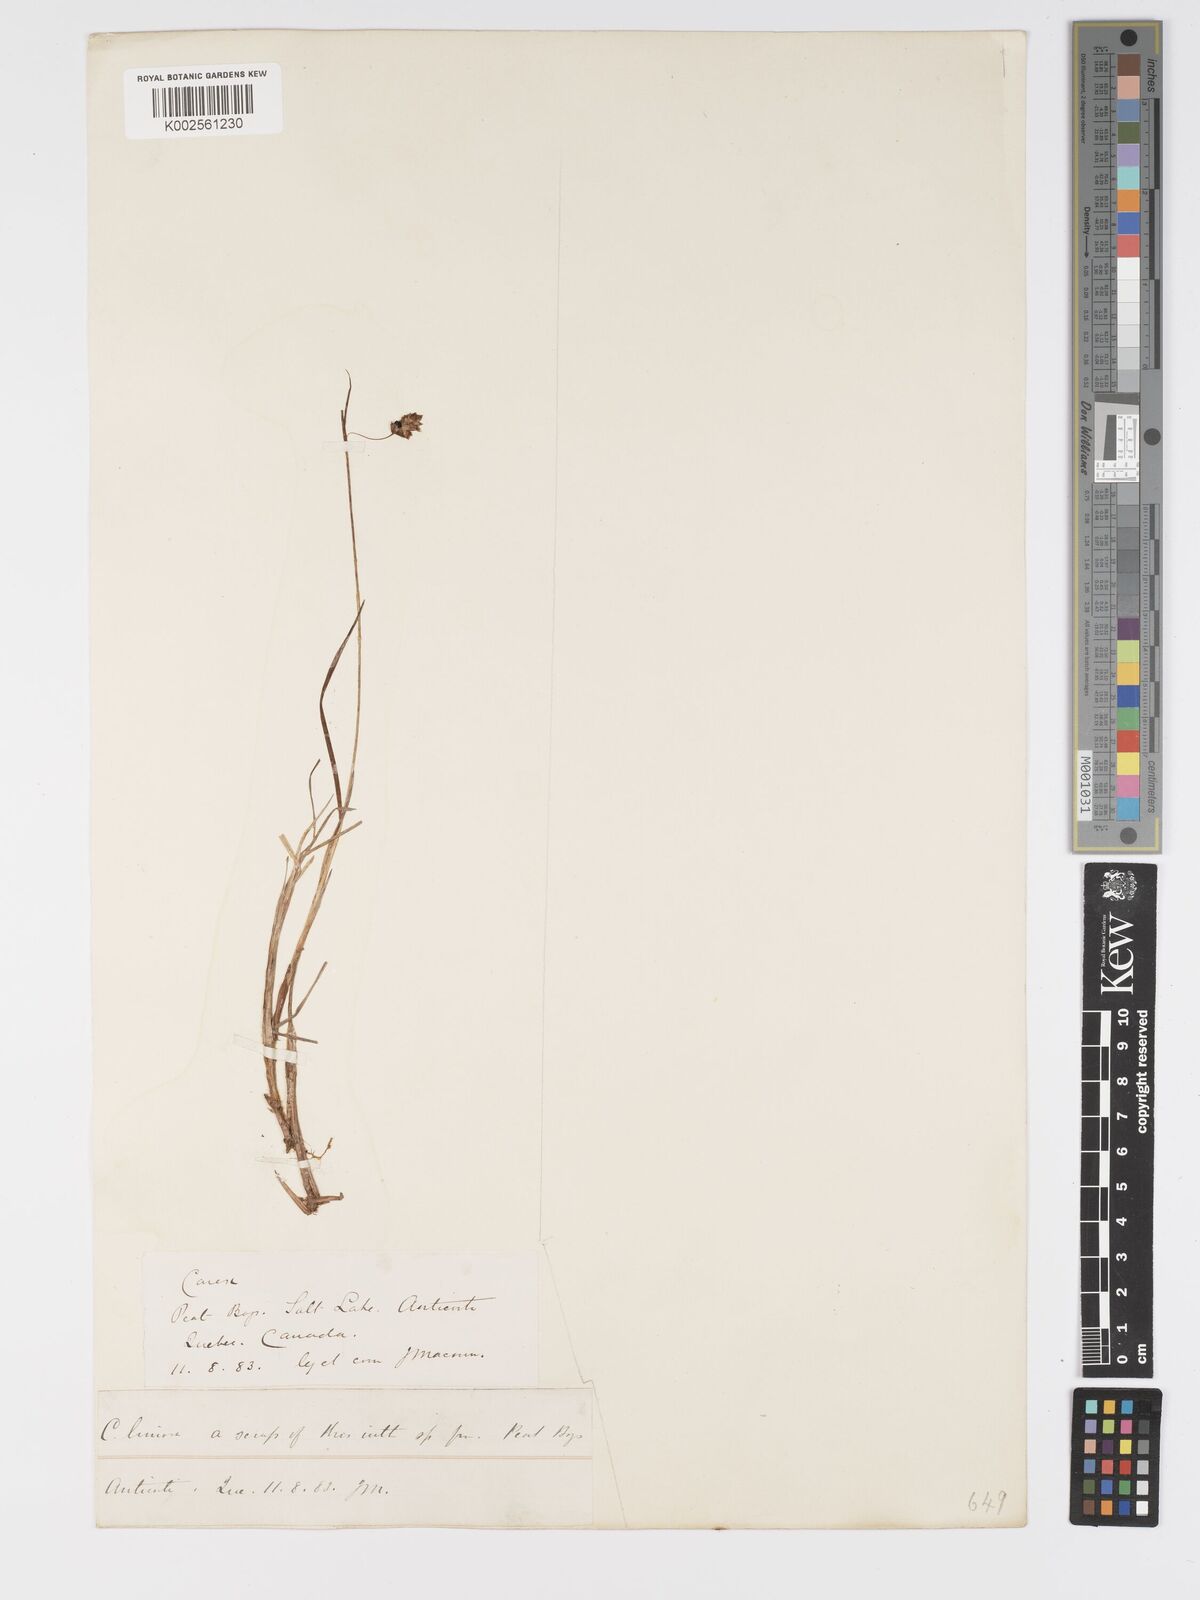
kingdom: Plantae
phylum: Tracheophyta
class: Liliopsida
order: Poales
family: Cyperaceae
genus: Carex
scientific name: Carex limosa
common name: Bog sedge
